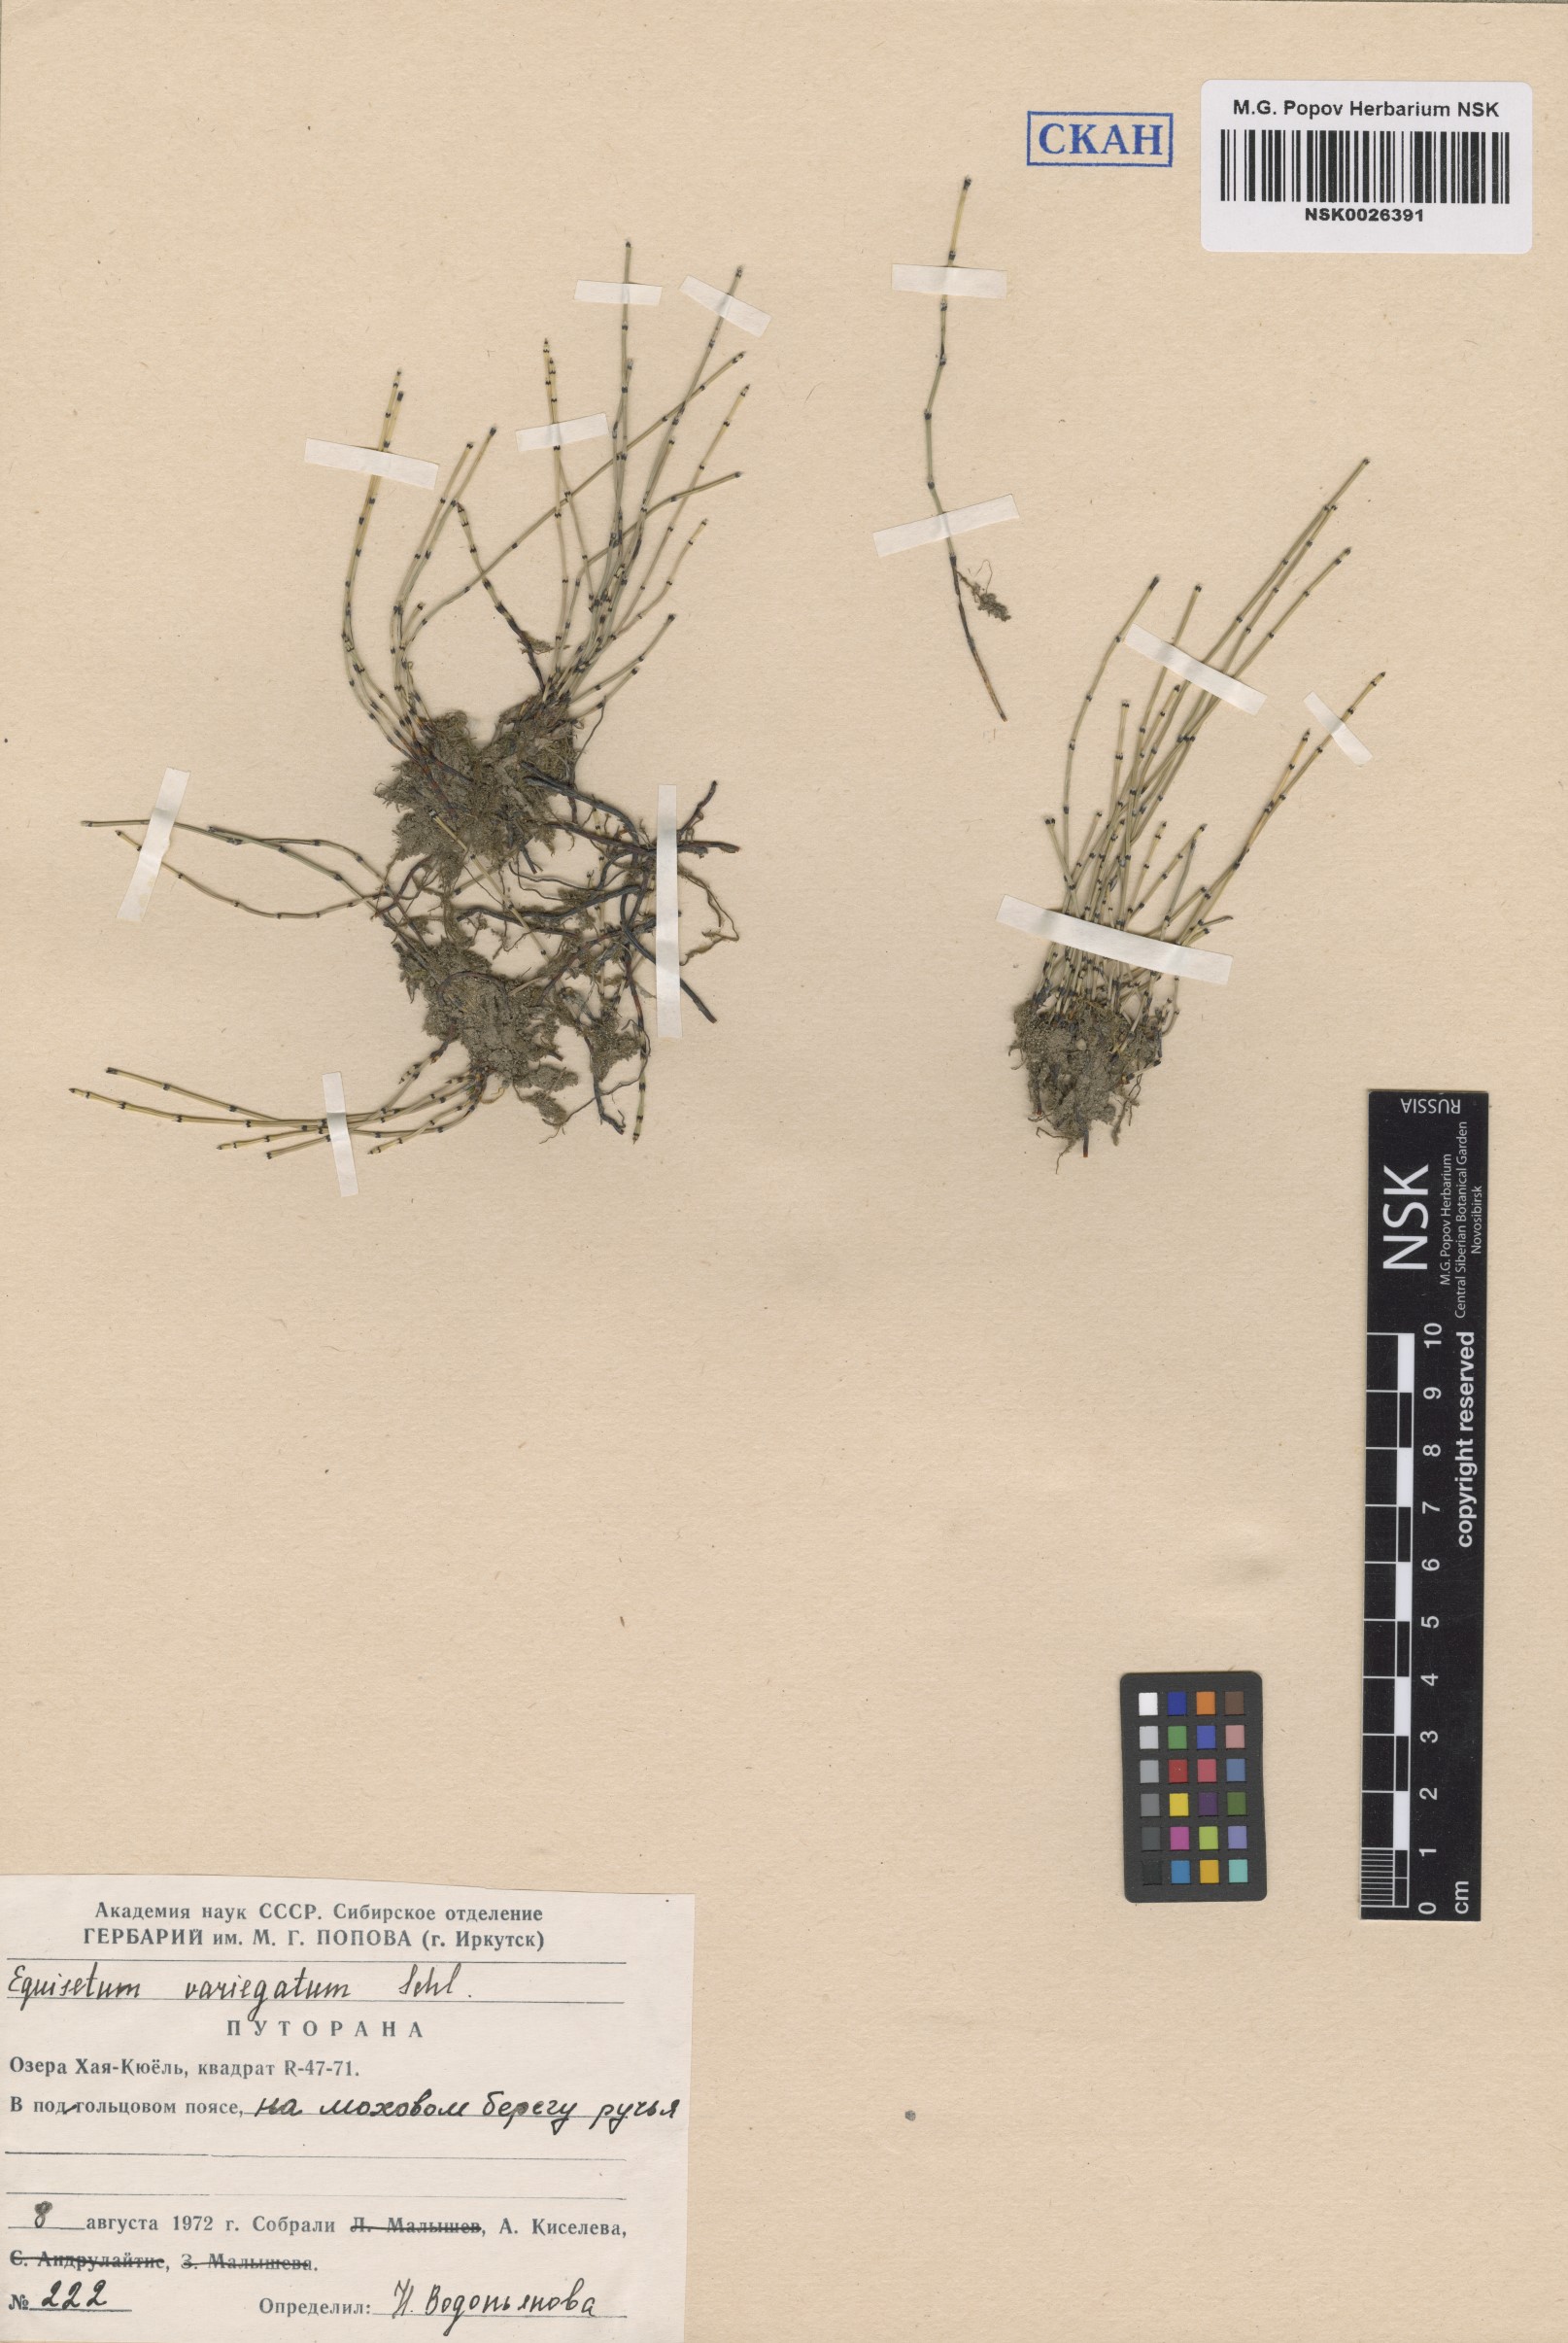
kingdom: Plantae
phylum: Tracheophyta
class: Polypodiopsida
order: Equisetales
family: Equisetaceae
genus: Equisetum
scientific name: Equisetum variegatum
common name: Variegated horsetail
